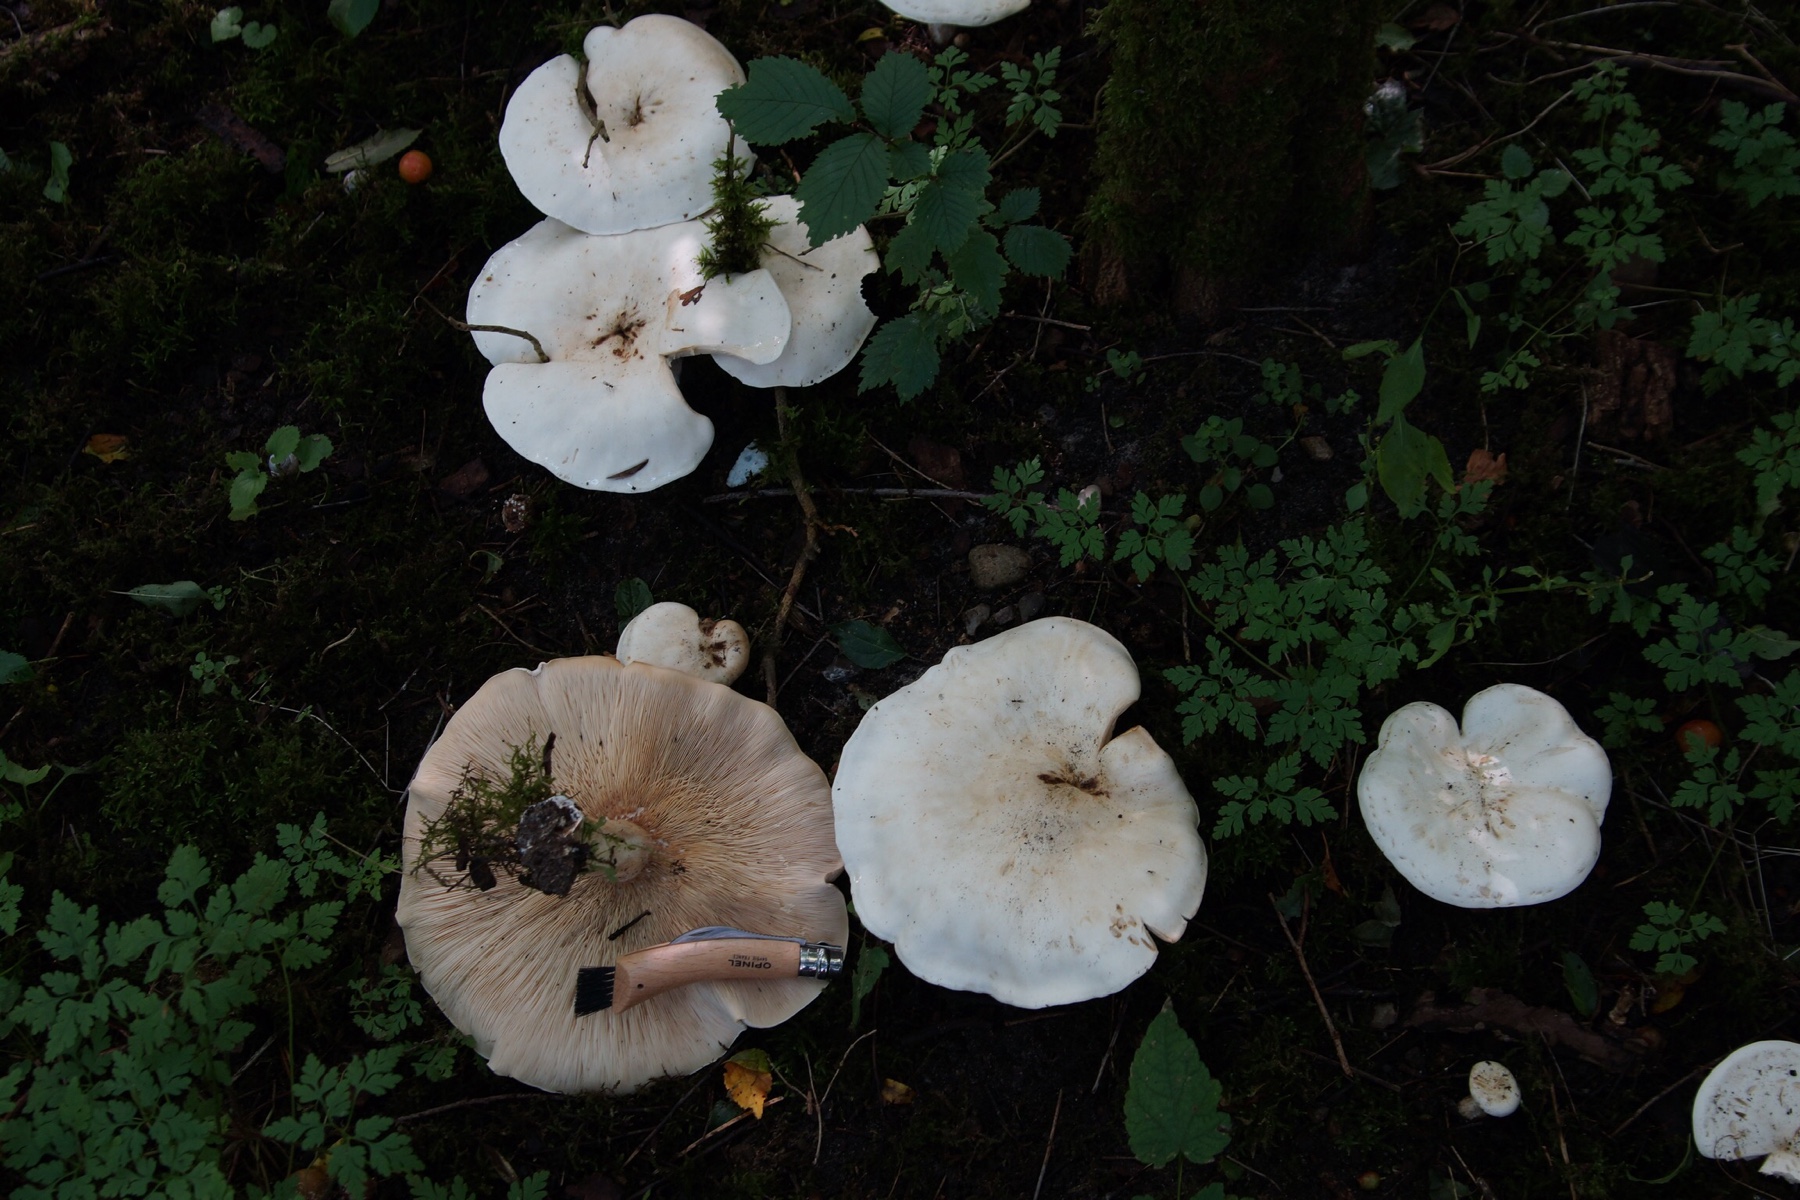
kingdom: Fungi
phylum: Basidiomycota
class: Agaricomycetes
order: Agaricales
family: Tricholomataceae
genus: Aspropaxillus
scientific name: Aspropaxillus giganteus
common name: kæmpe-tragtridderhat
